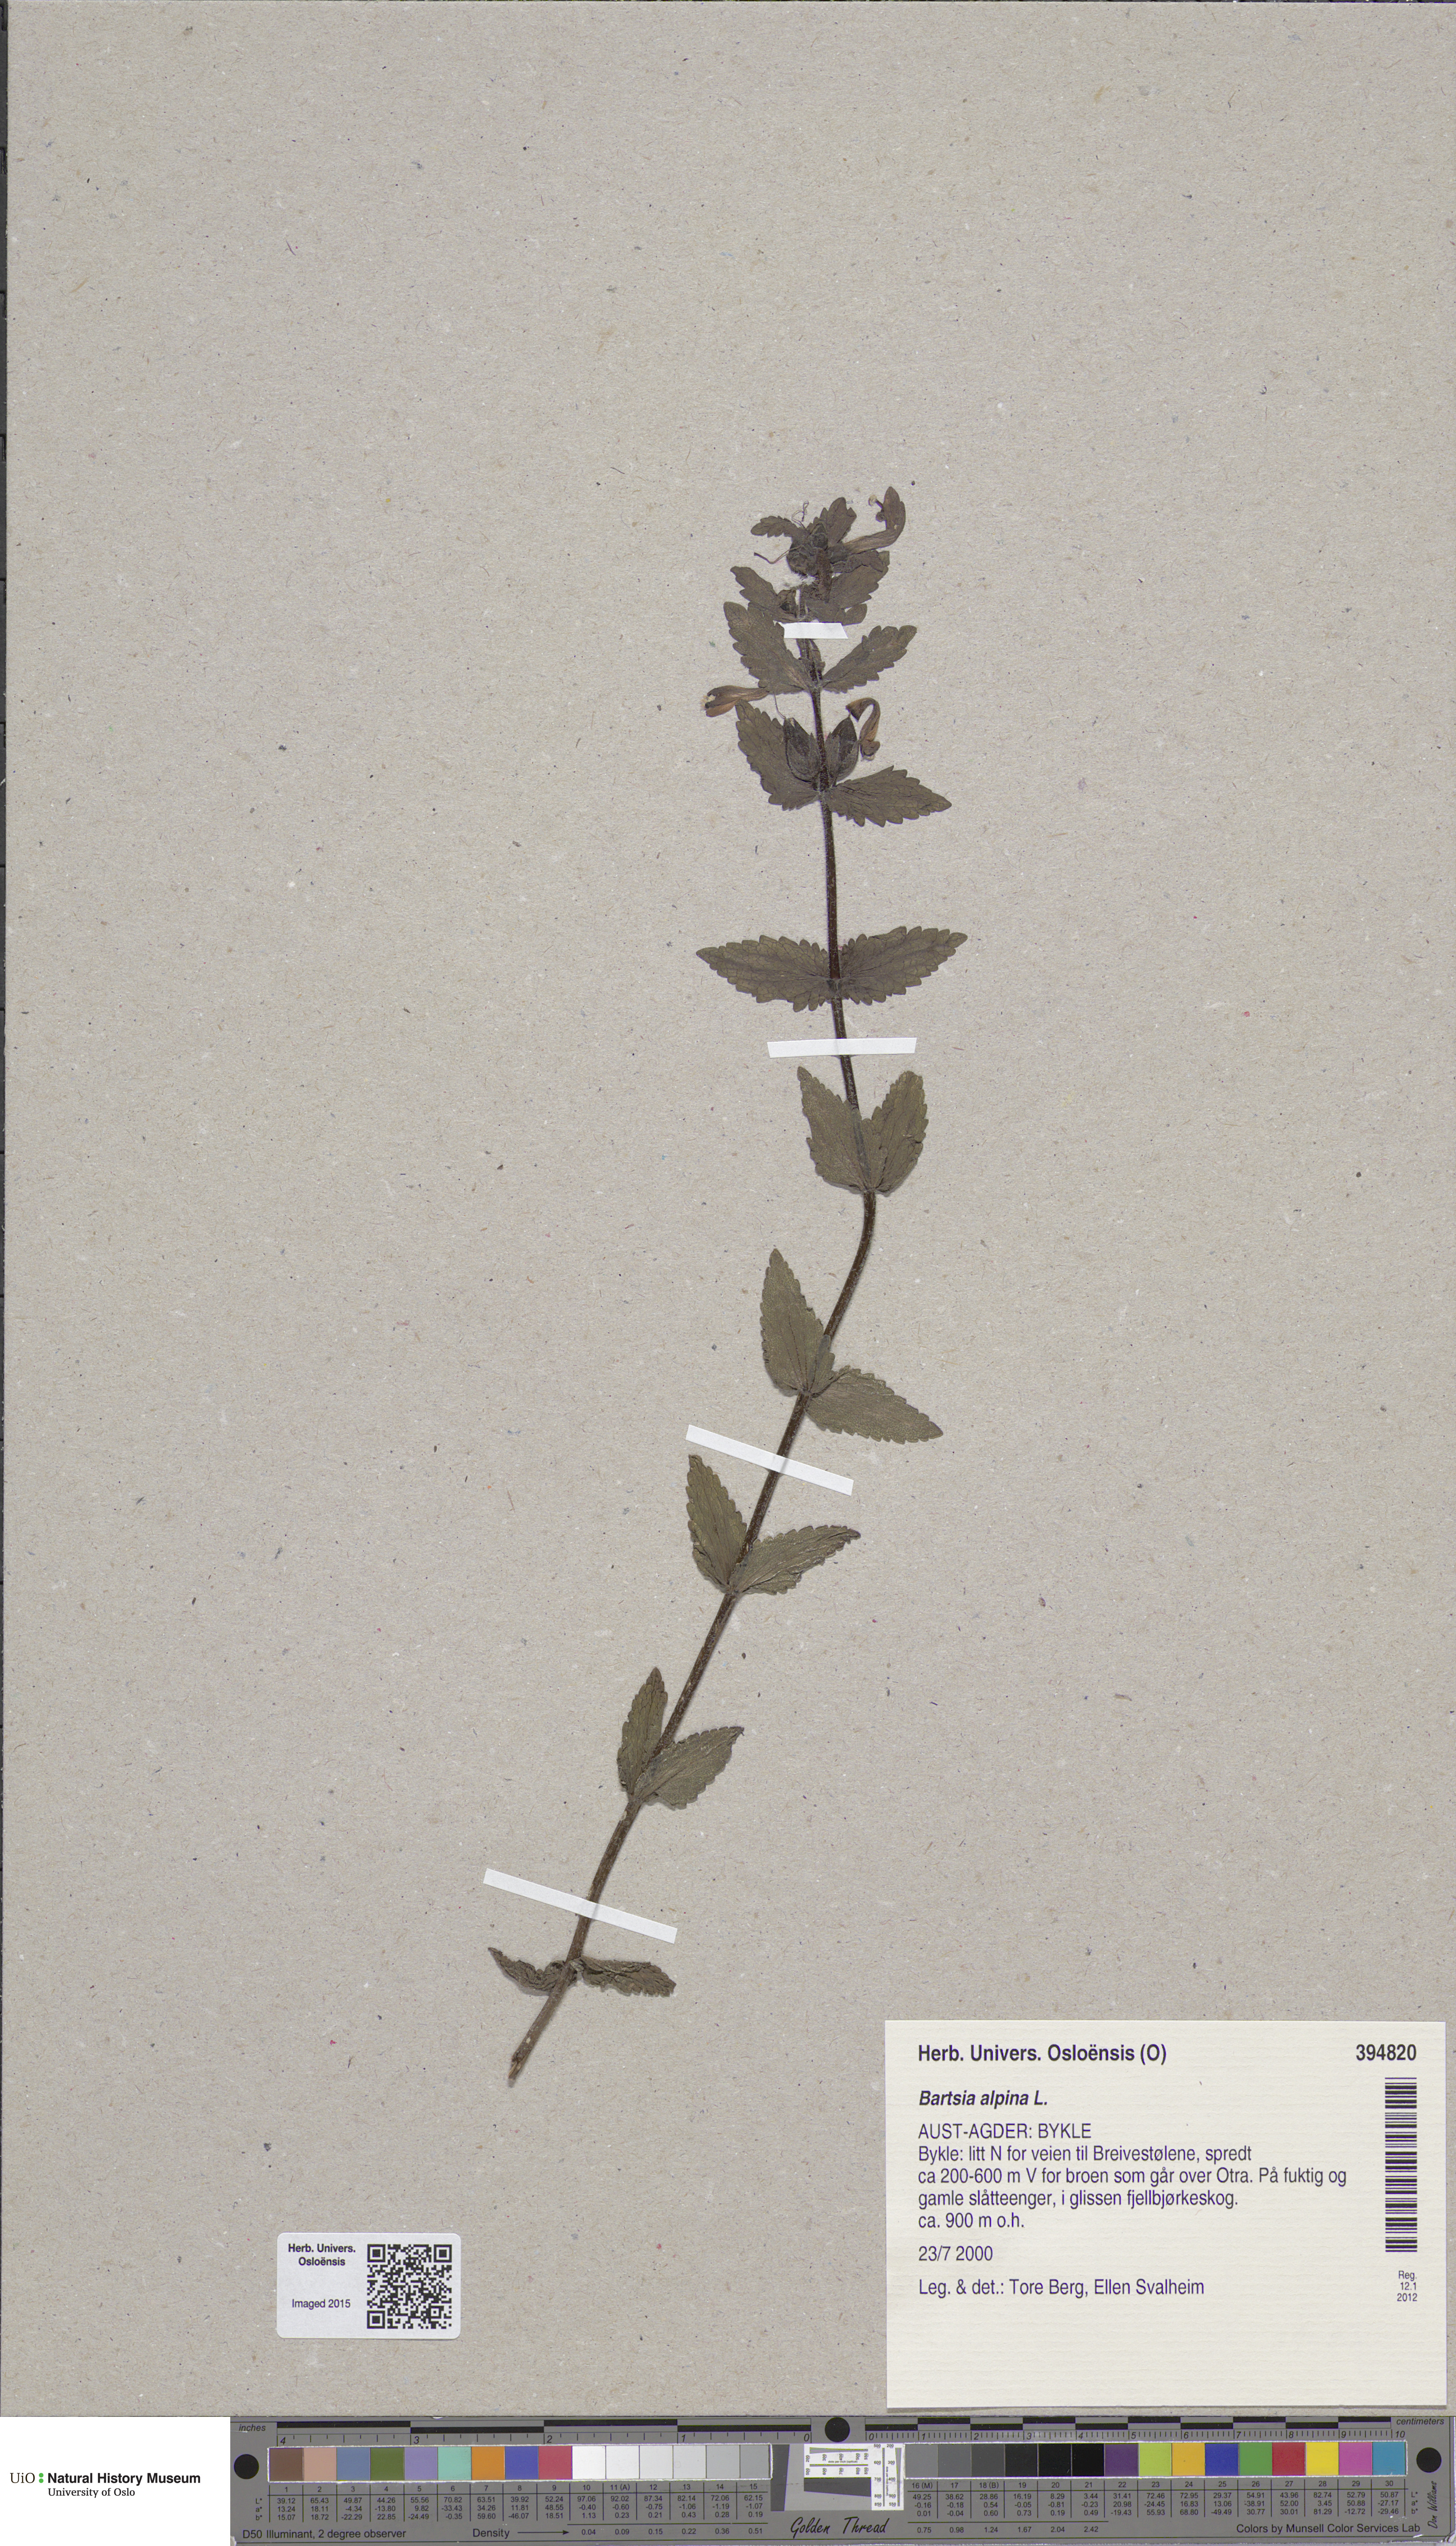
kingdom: Plantae
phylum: Tracheophyta
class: Magnoliopsida
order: Lamiales
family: Orobanchaceae
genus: Bartsia
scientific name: Bartsia alpina
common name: Alpine bartsia
